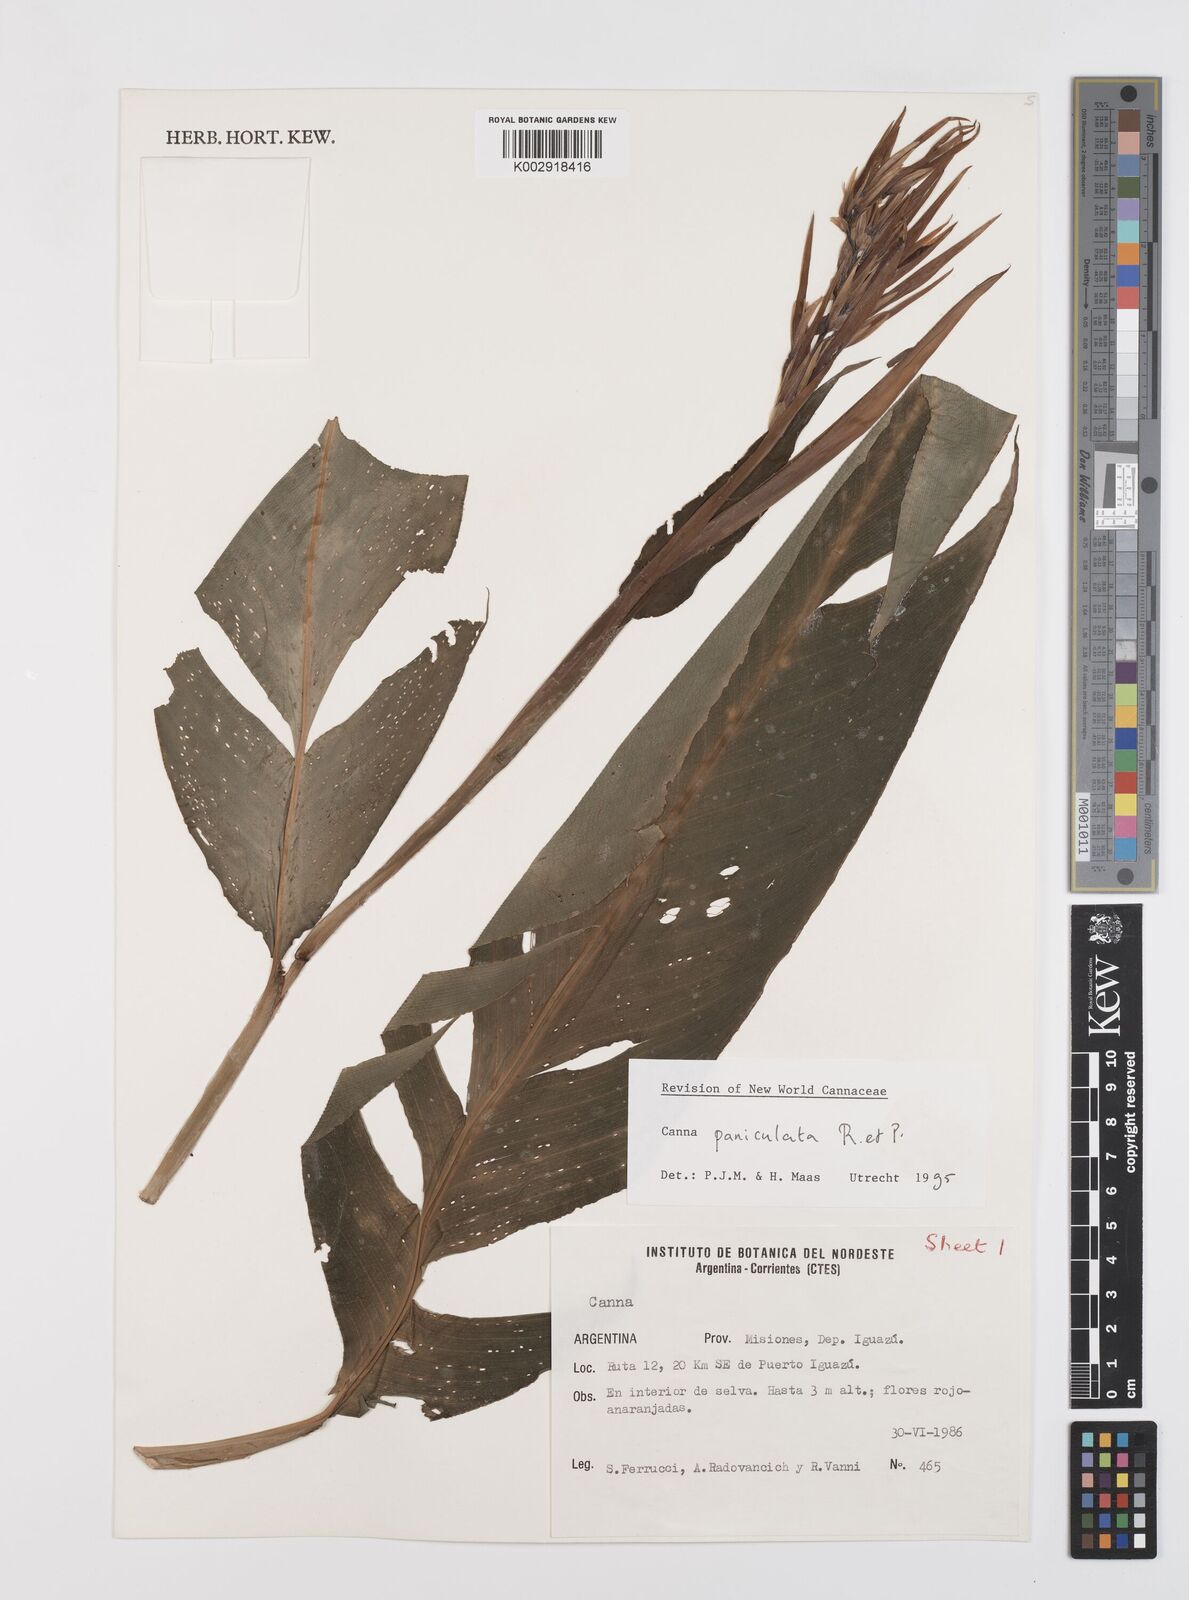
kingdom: Plantae
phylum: Tracheophyta
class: Liliopsida
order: Zingiberales
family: Cannaceae
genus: Canna
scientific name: Canna paniculata
